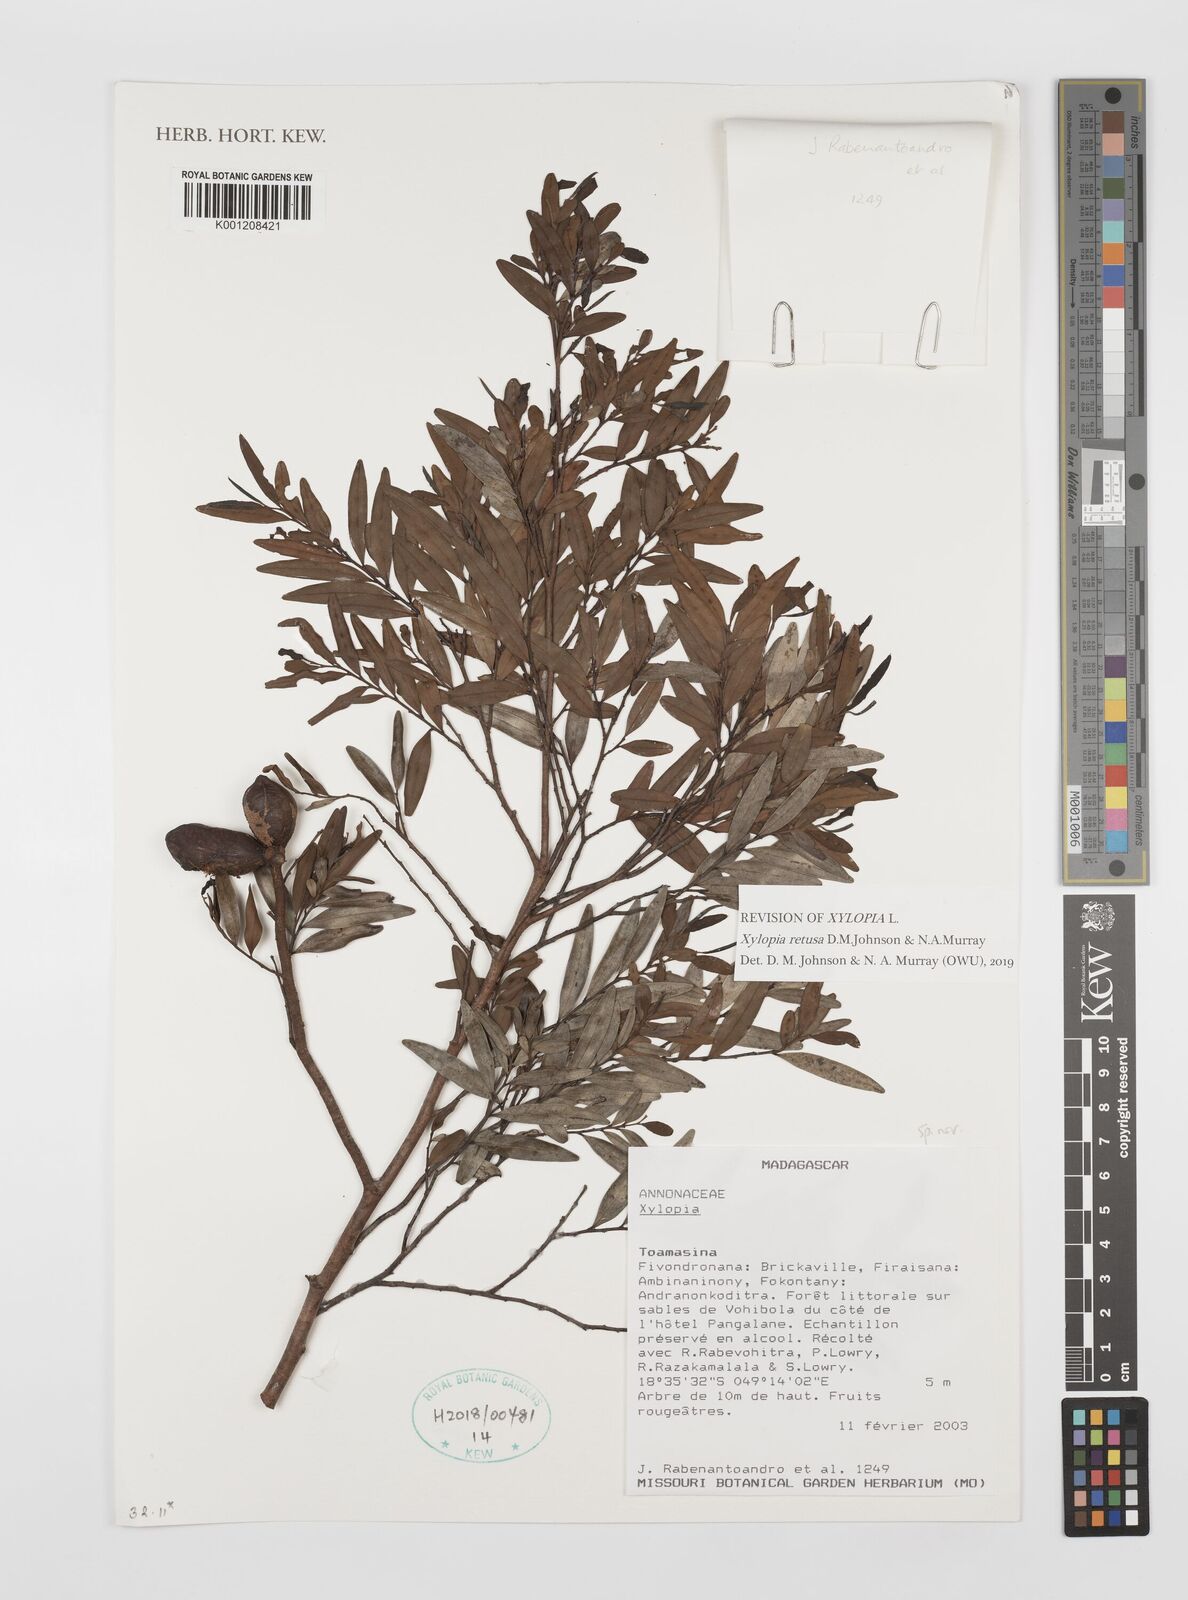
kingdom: Plantae
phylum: Tracheophyta
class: Magnoliopsida
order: Magnoliales
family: Annonaceae
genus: Xylopia
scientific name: Xylopia
